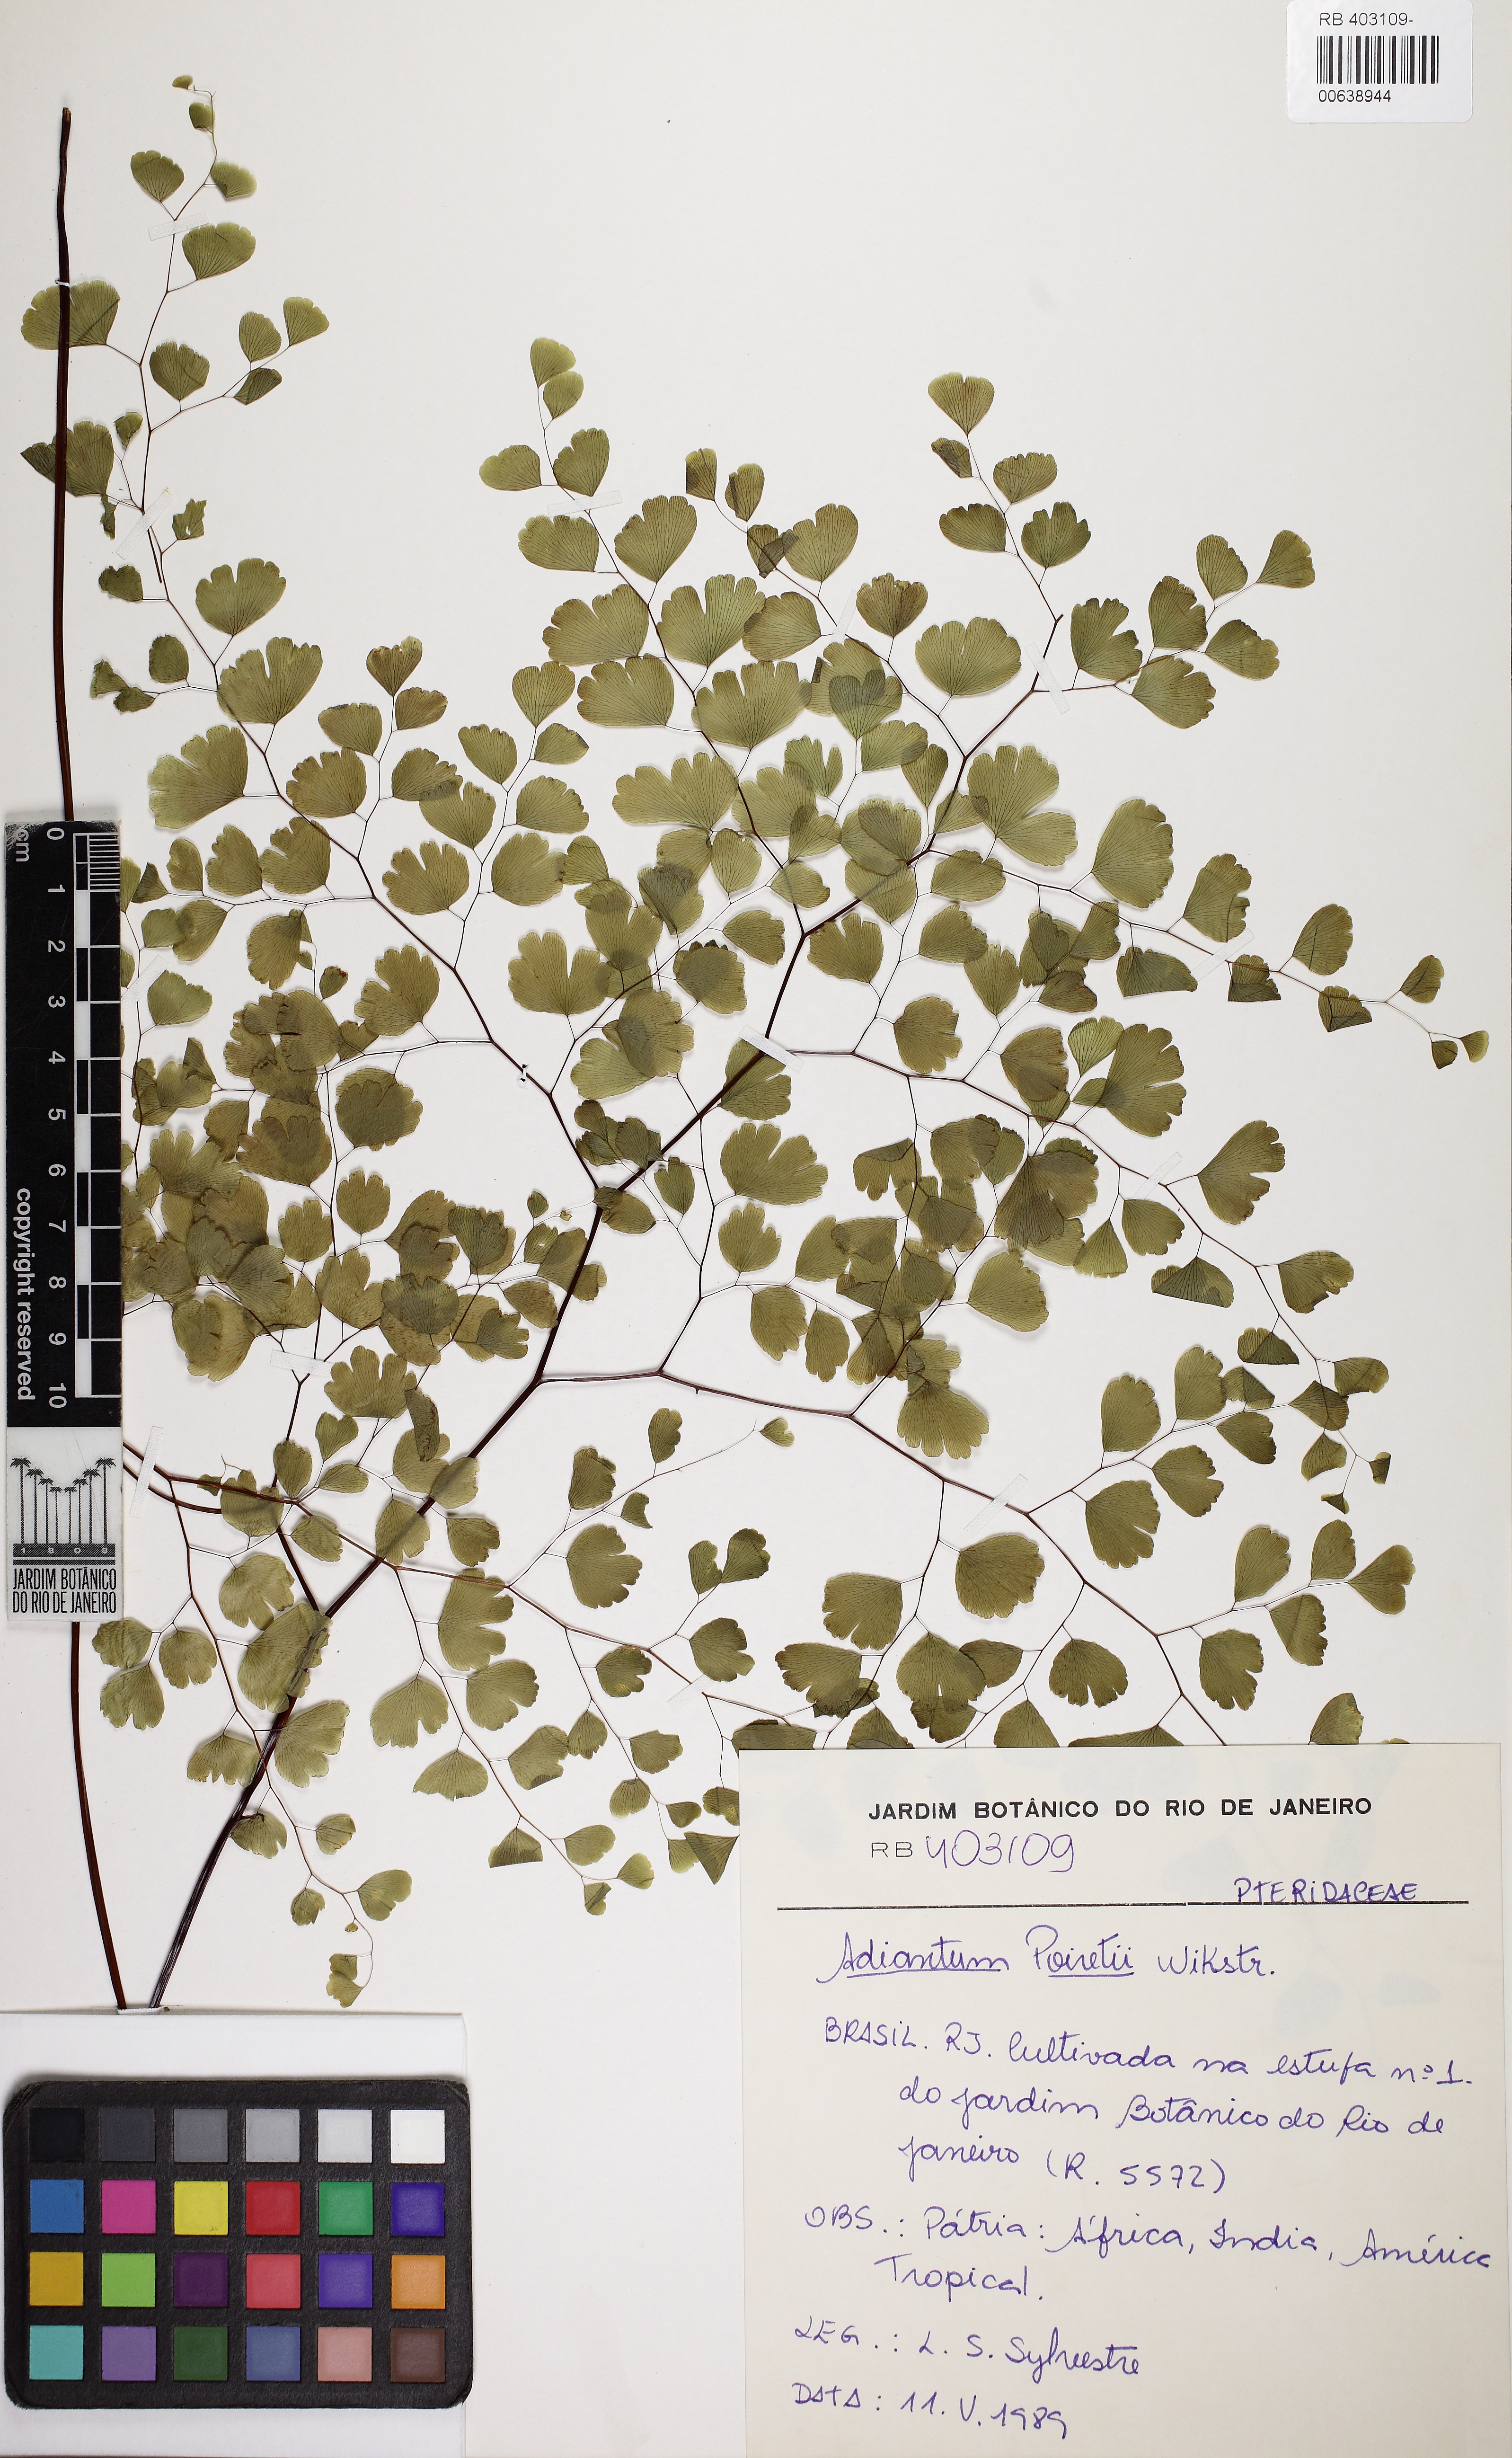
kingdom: Plantae
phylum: Tracheophyta
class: Polypodiopsida
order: Polypodiales
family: Pteridaceae
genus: Adiantum
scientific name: Adiantum pseudotinctum
